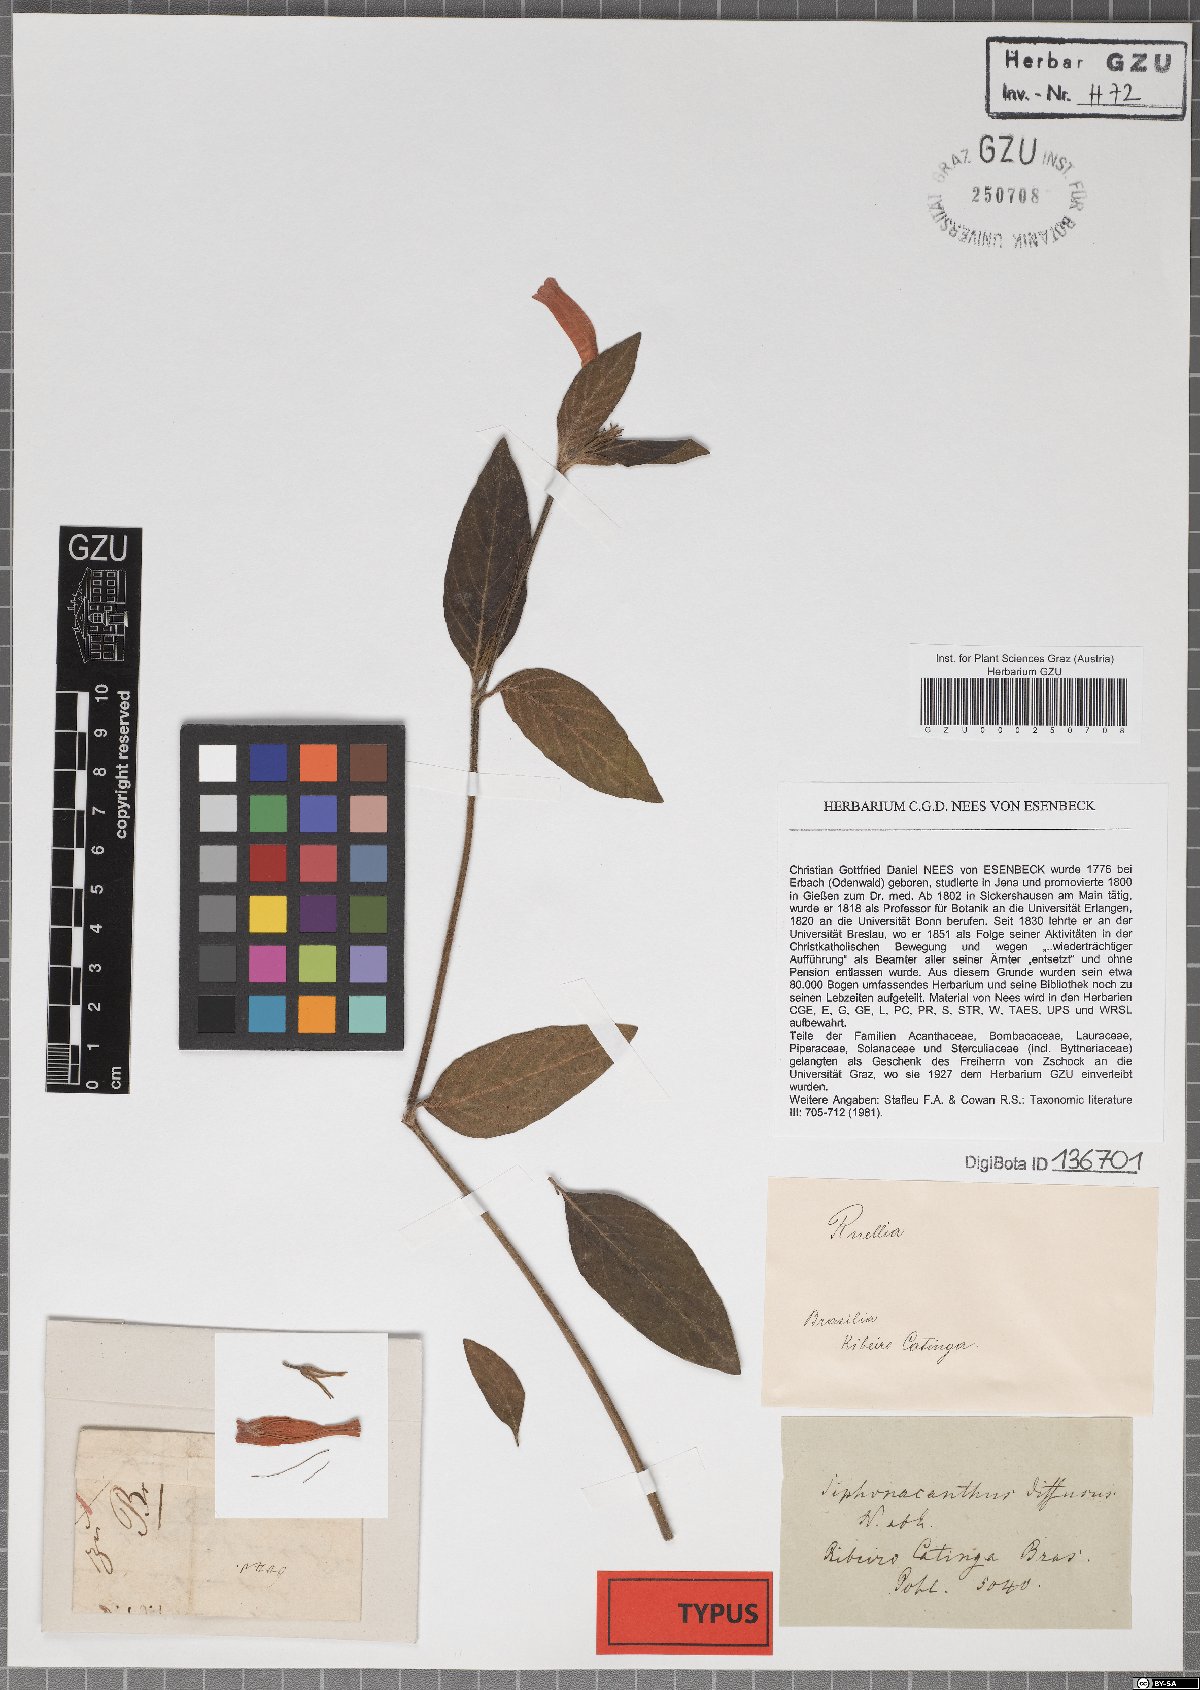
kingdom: Plantae
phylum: Tracheophyta
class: Magnoliopsida
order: Lamiales
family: Acanthaceae
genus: Ruellia
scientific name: Ruellia villosa
